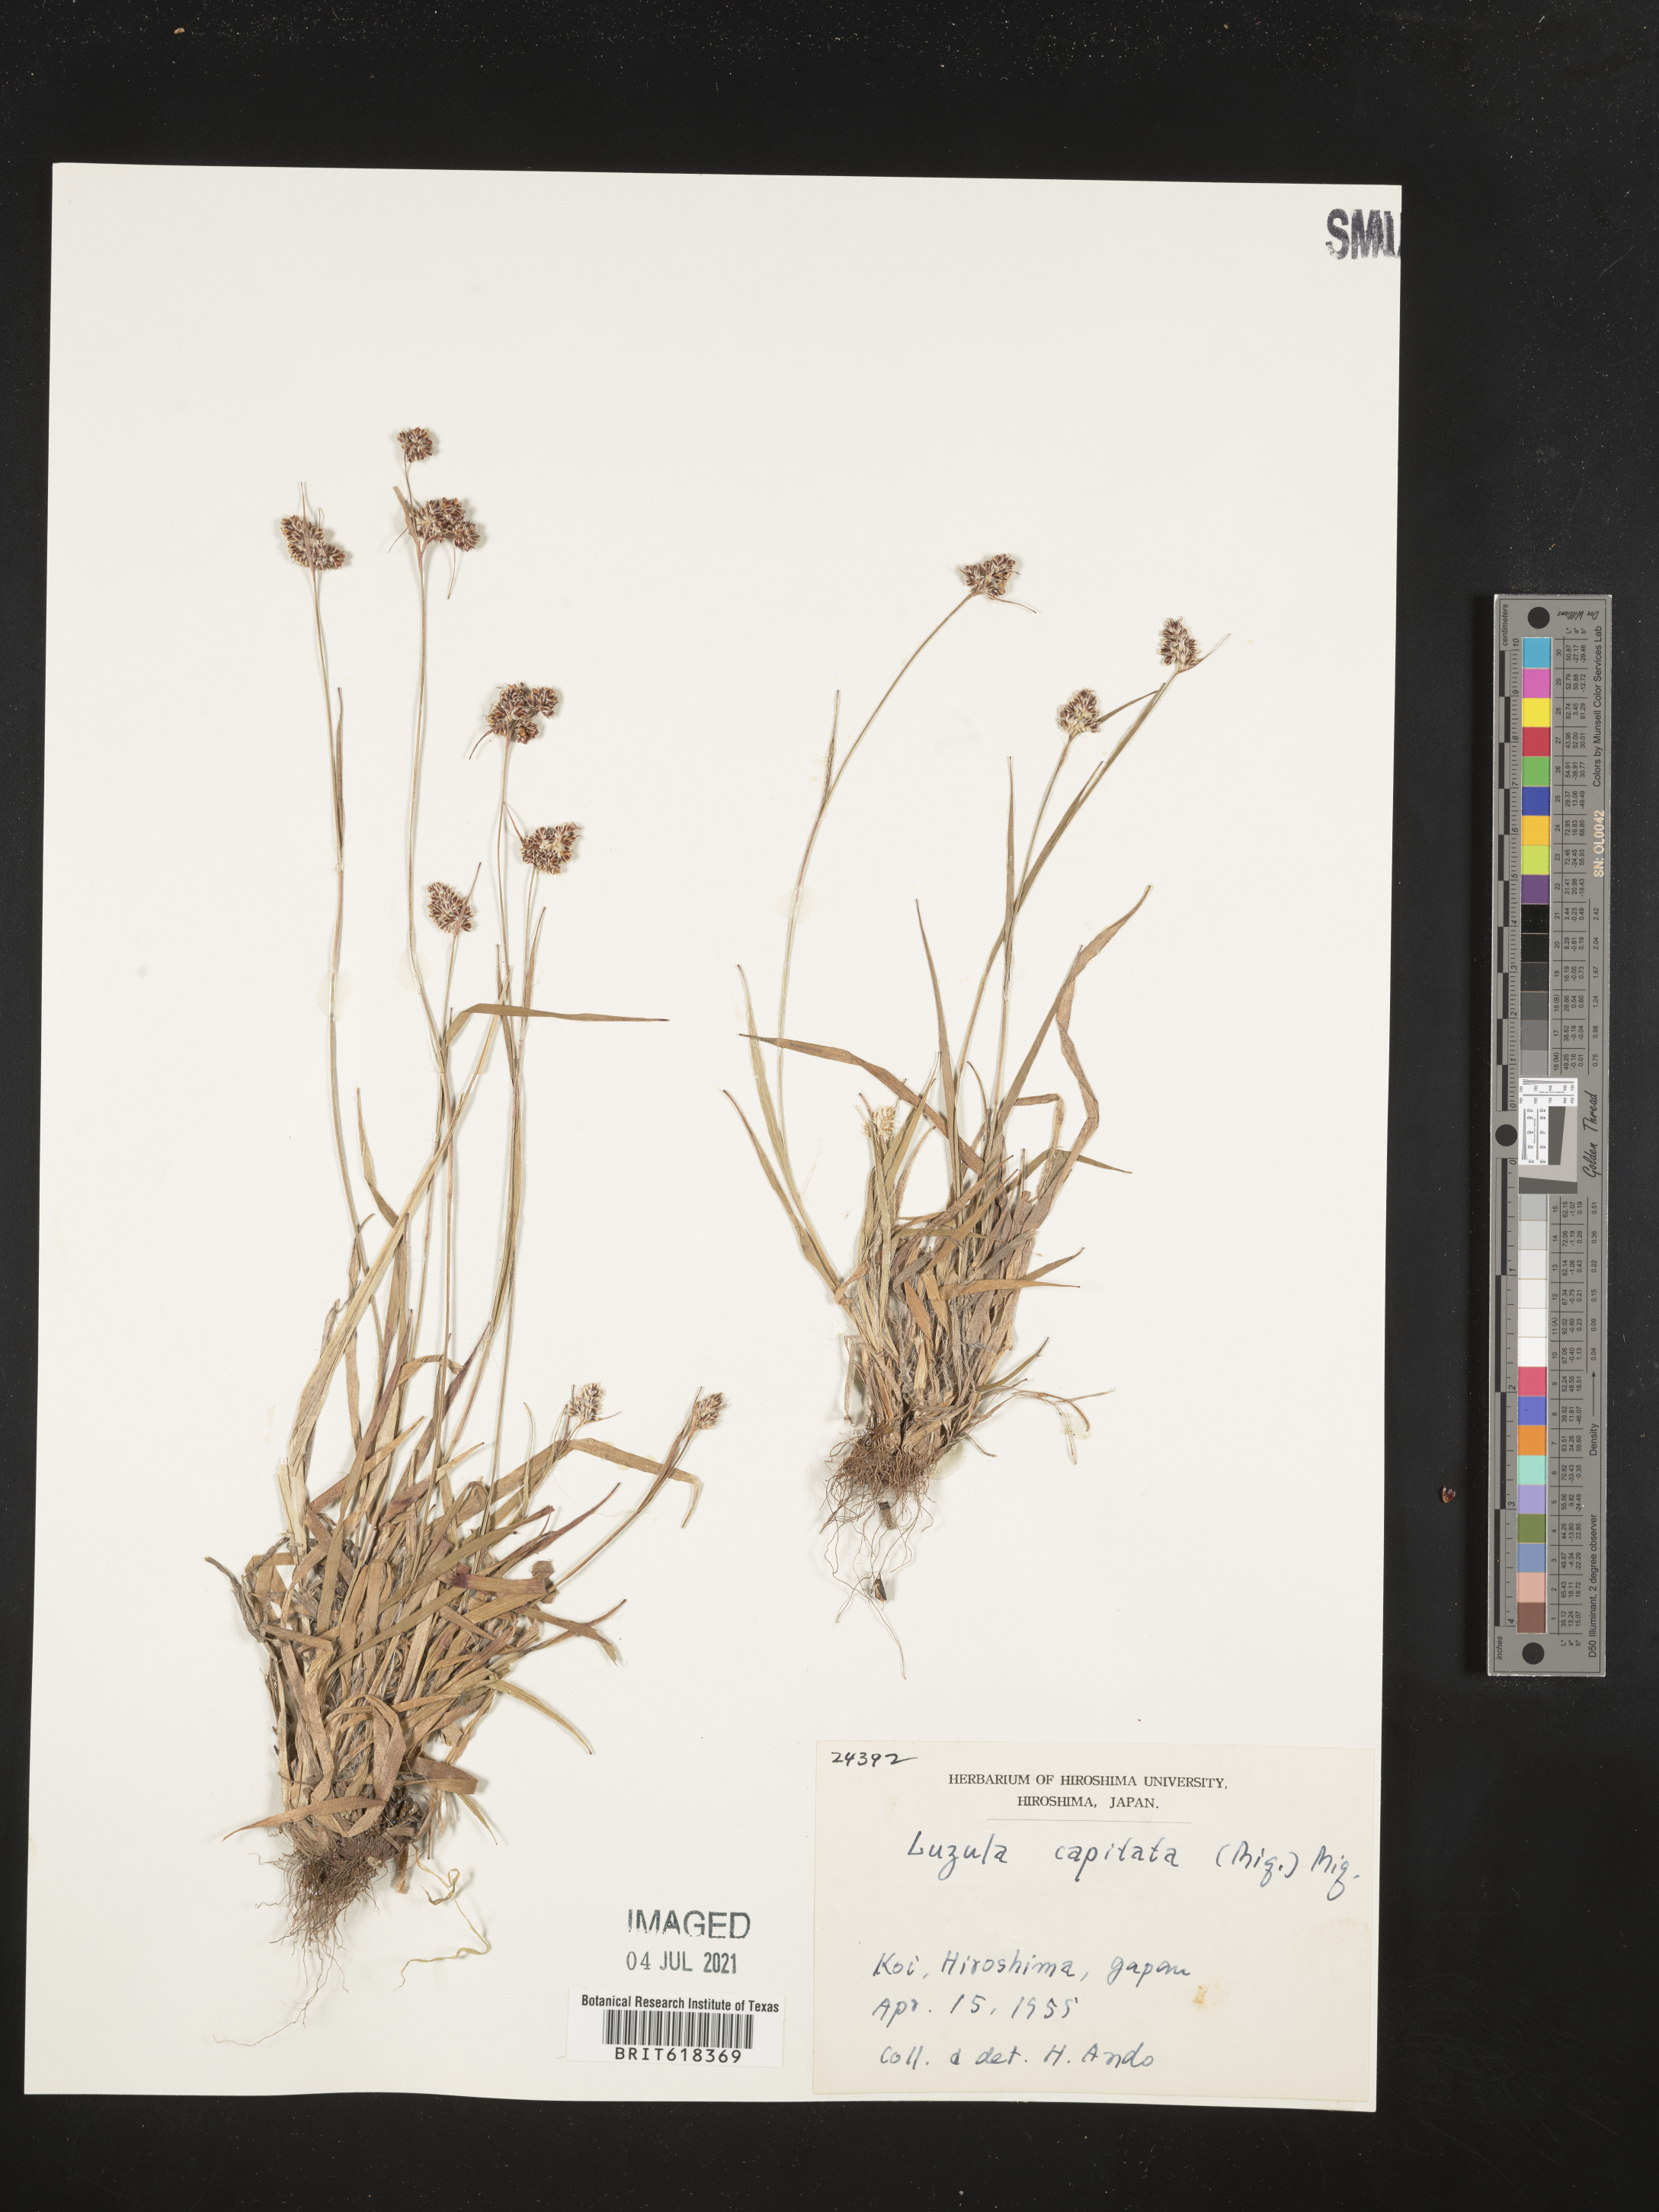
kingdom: Plantae
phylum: Tracheophyta
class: Liliopsida
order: Poales
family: Juncaceae
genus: Luzula
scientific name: Luzula capitata
